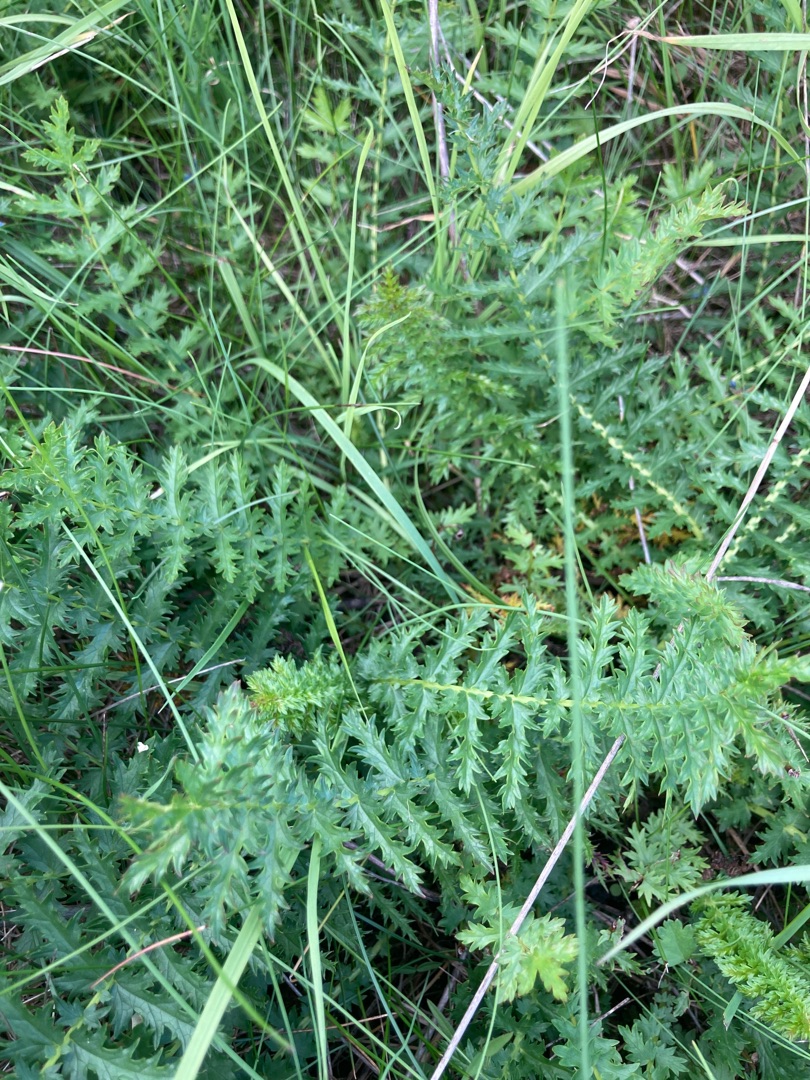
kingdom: Plantae
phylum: Tracheophyta
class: Magnoliopsida
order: Rosales
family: Rosaceae
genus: Filipendula
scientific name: Filipendula vulgaris
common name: Knoldet mjødurt
